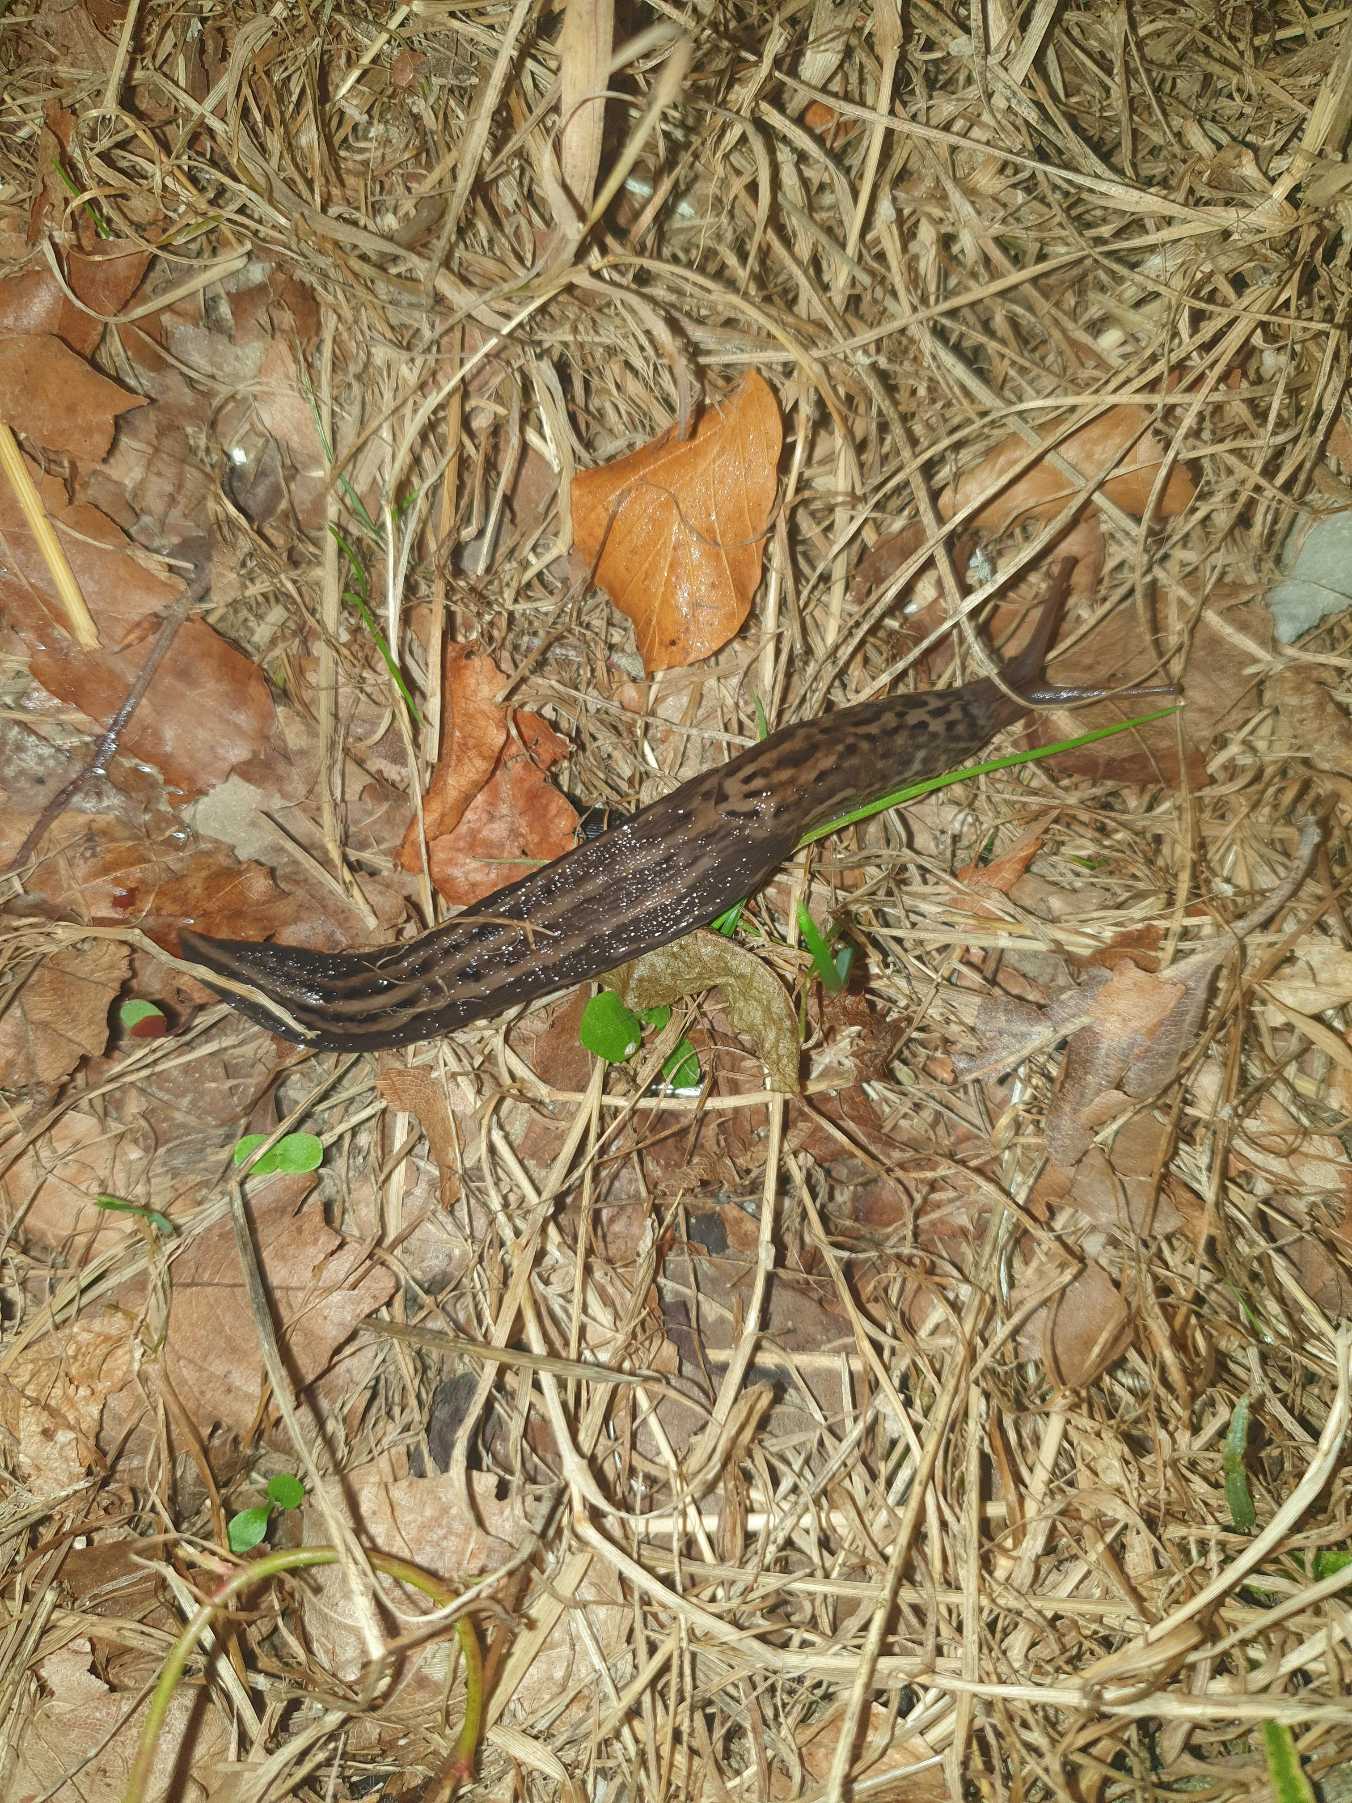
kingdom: Animalia
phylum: Mollusca
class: Gastropoda
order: Stylommatophora
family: Limacidae
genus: Limax
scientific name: Limax maximus
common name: Pantersnegl
